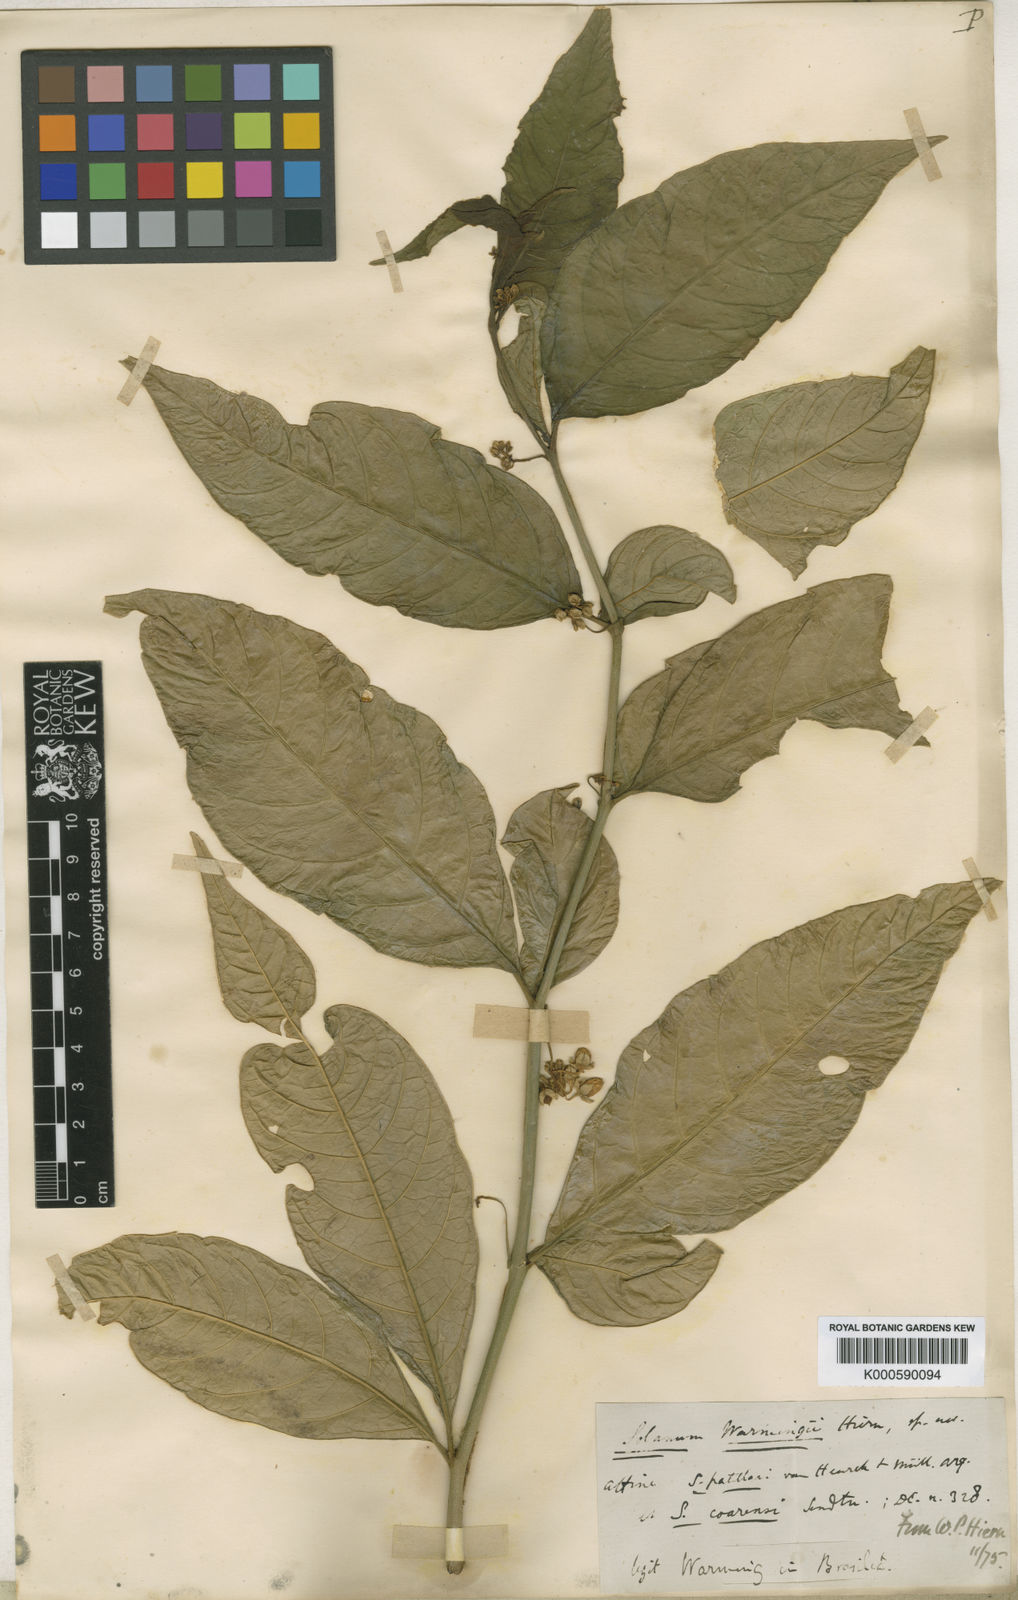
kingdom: Plantae
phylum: Tracheophyta
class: Magnoliopsida
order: Solanales
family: Solanaceae
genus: Solanum
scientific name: Solanum warmingii
